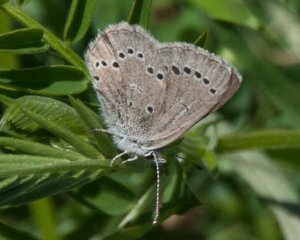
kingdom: Animalia
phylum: Arthropoda
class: Insecta
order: Lepidoptera
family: Lycaenidae
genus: Glaucopsyche
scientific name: Glaucopsyche lygdamus
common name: Silvery Blue
